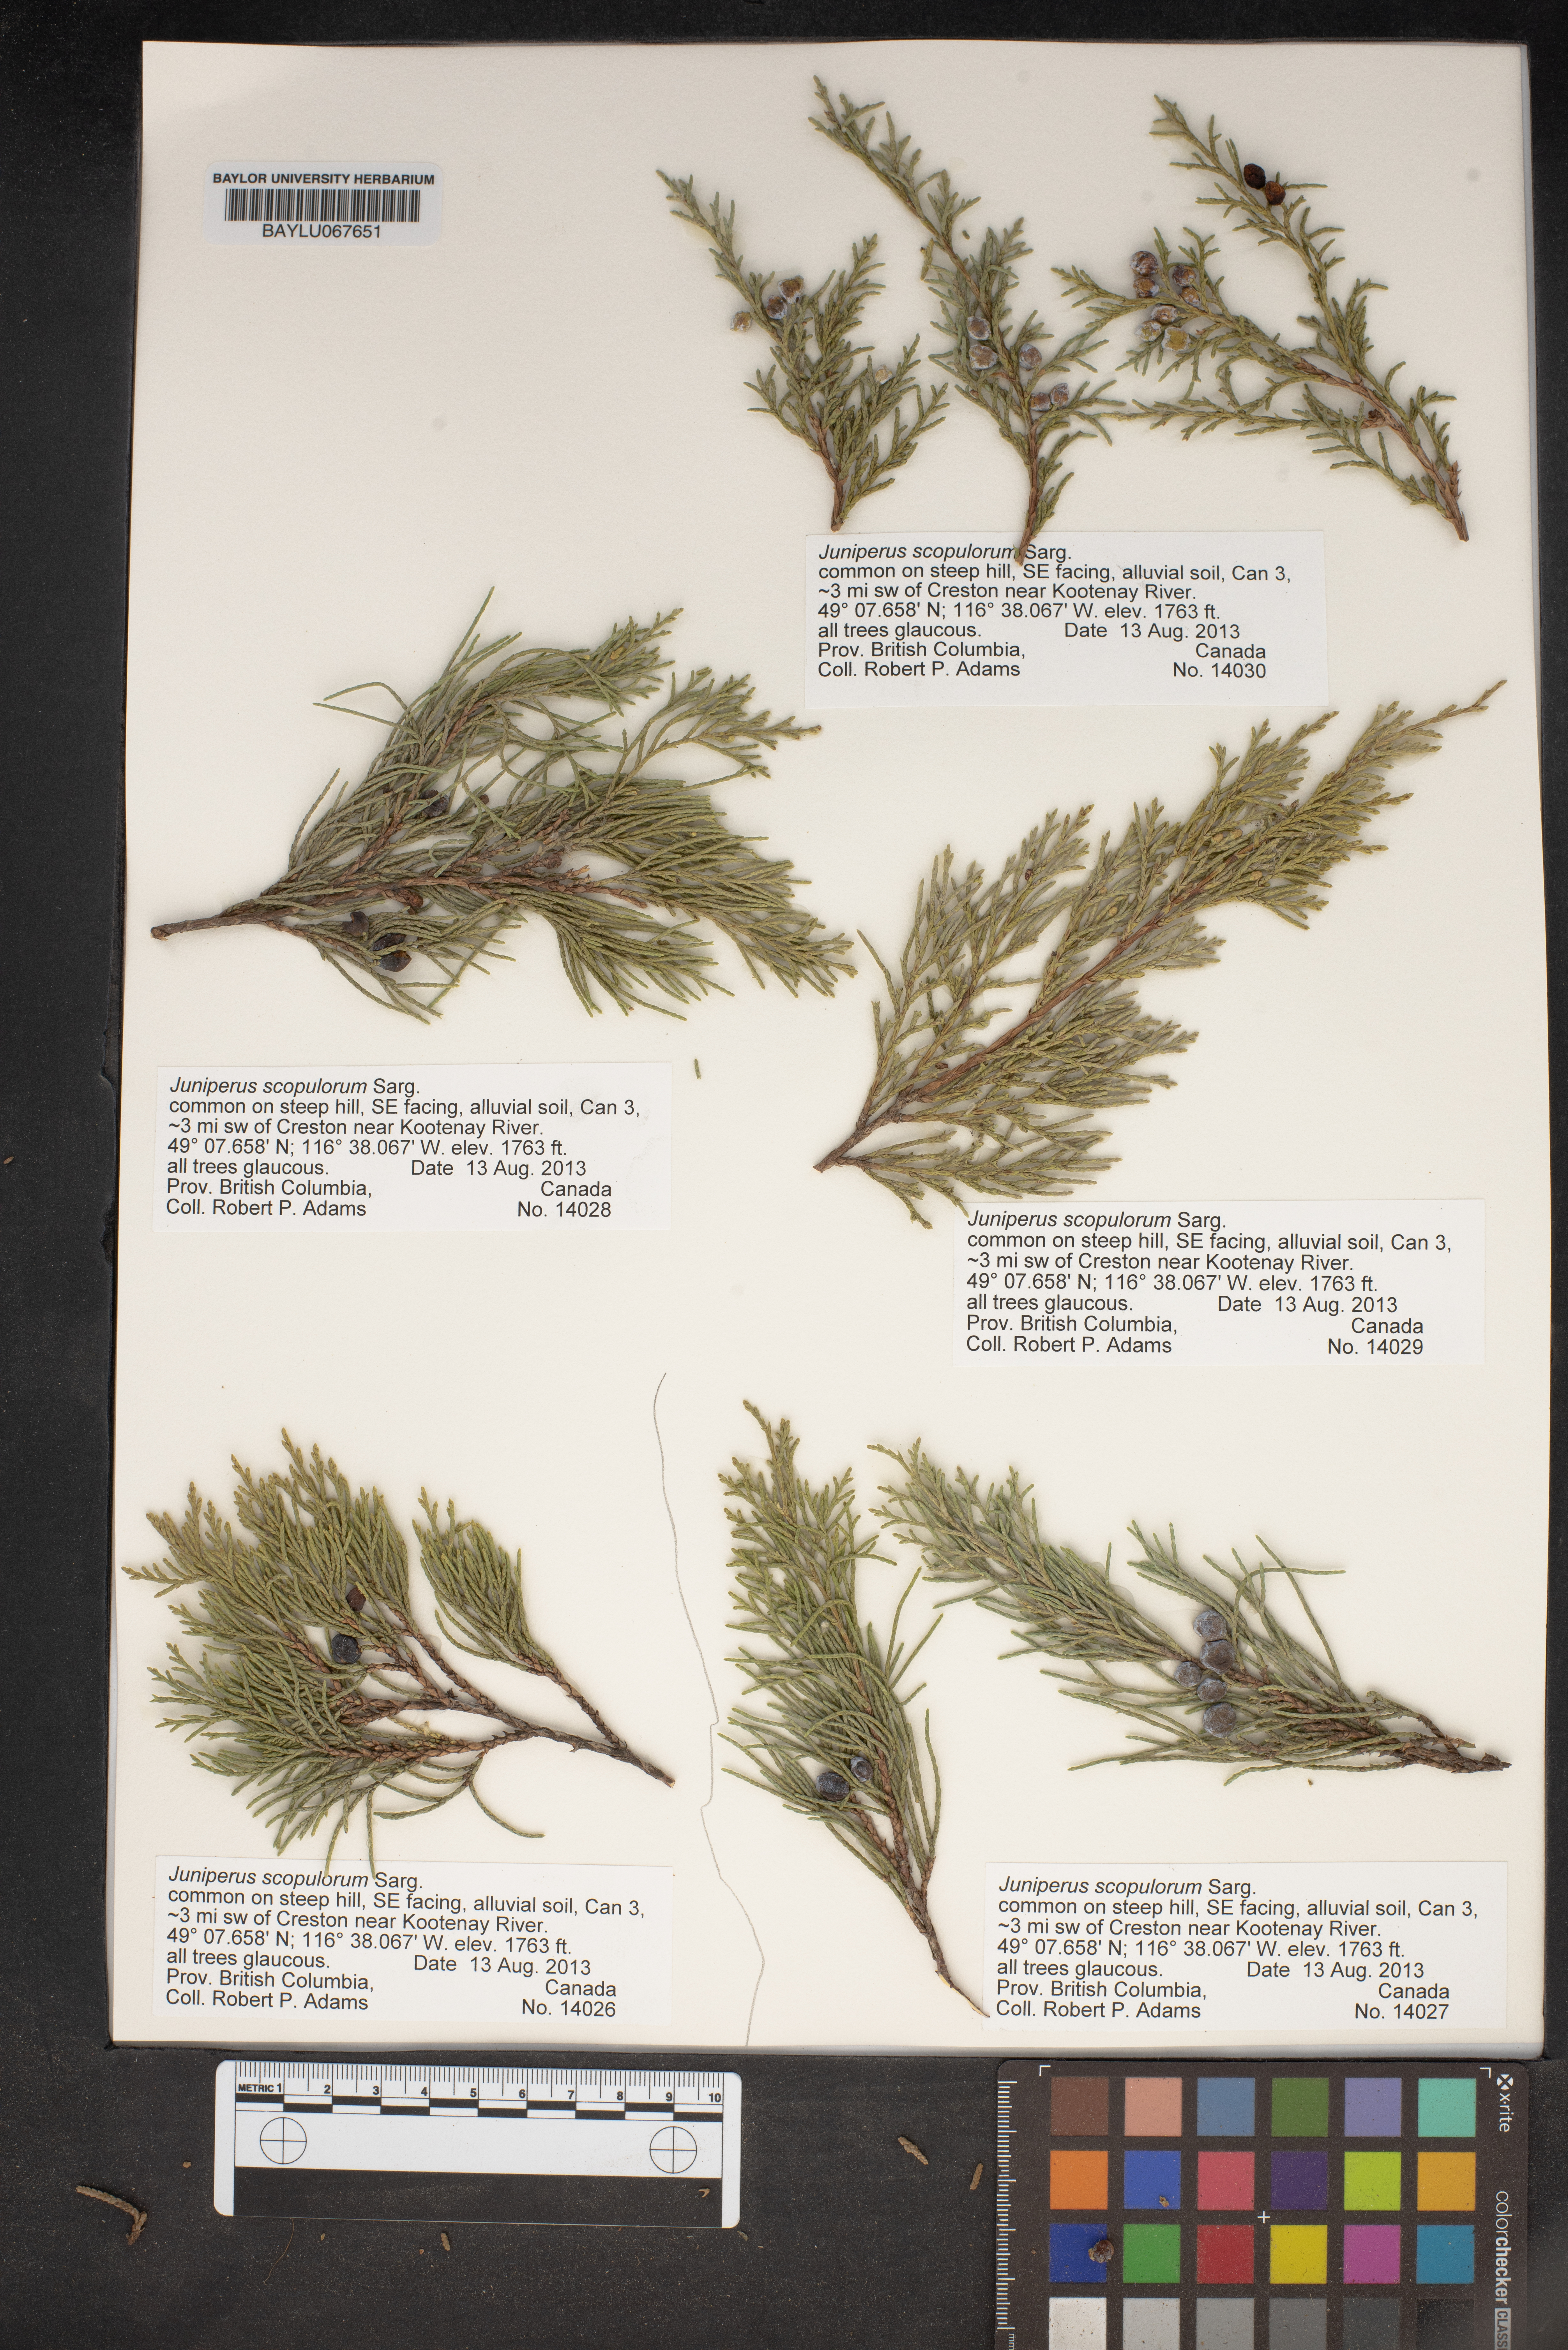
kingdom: Plantae
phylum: Tracheophyta
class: Pinopsida
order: Pinales
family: Cupressaceae
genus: Juniperus
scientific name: Juniperus scopulorum
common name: Rocky mountain juniper
